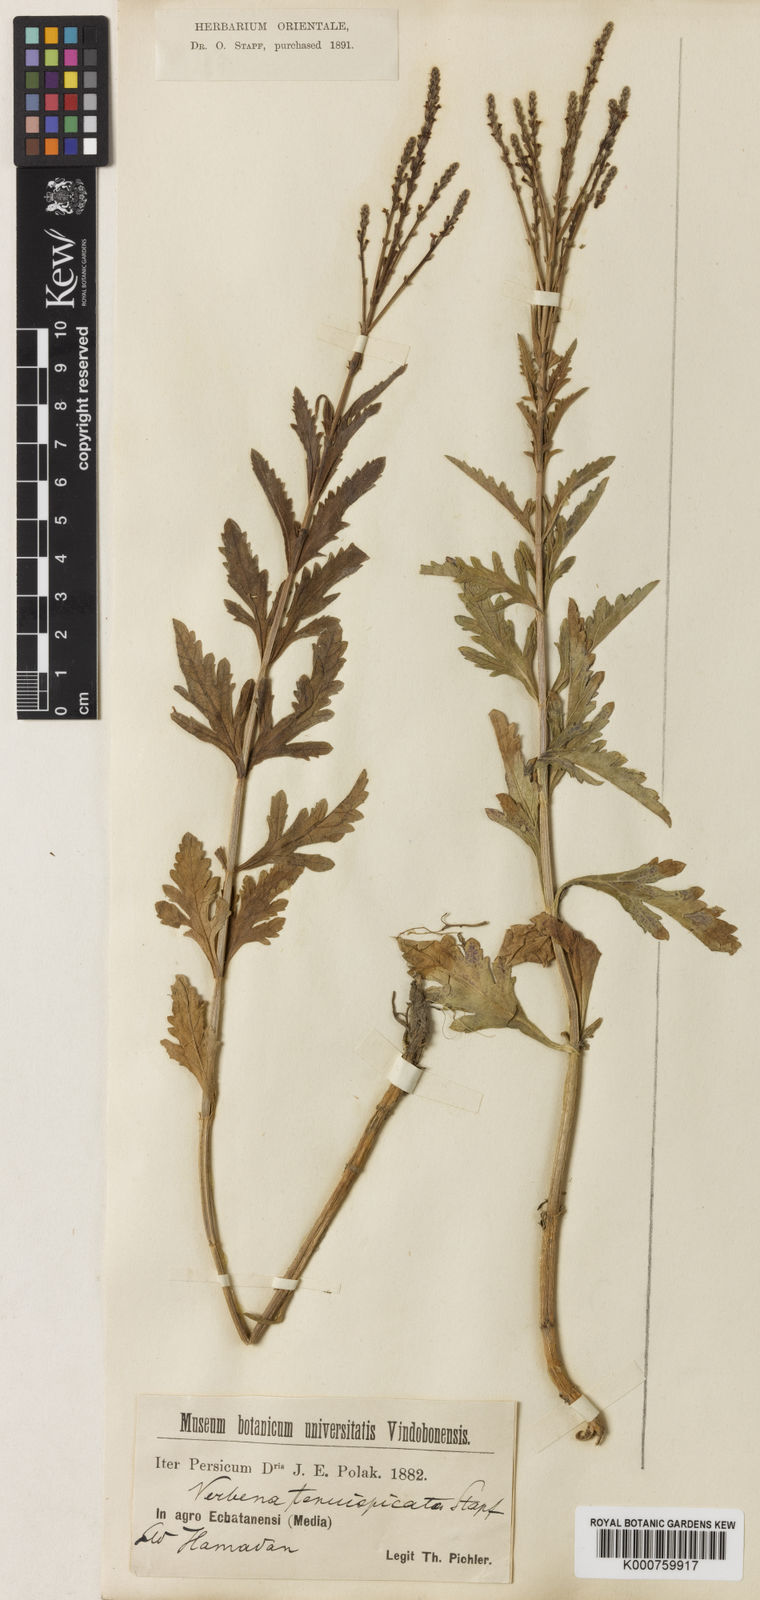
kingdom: Plantae
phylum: Tracheophyta
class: Magnoliopsida
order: Lamiales
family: Verbenaceae
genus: Verbena
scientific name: Verbena tenuispicata
